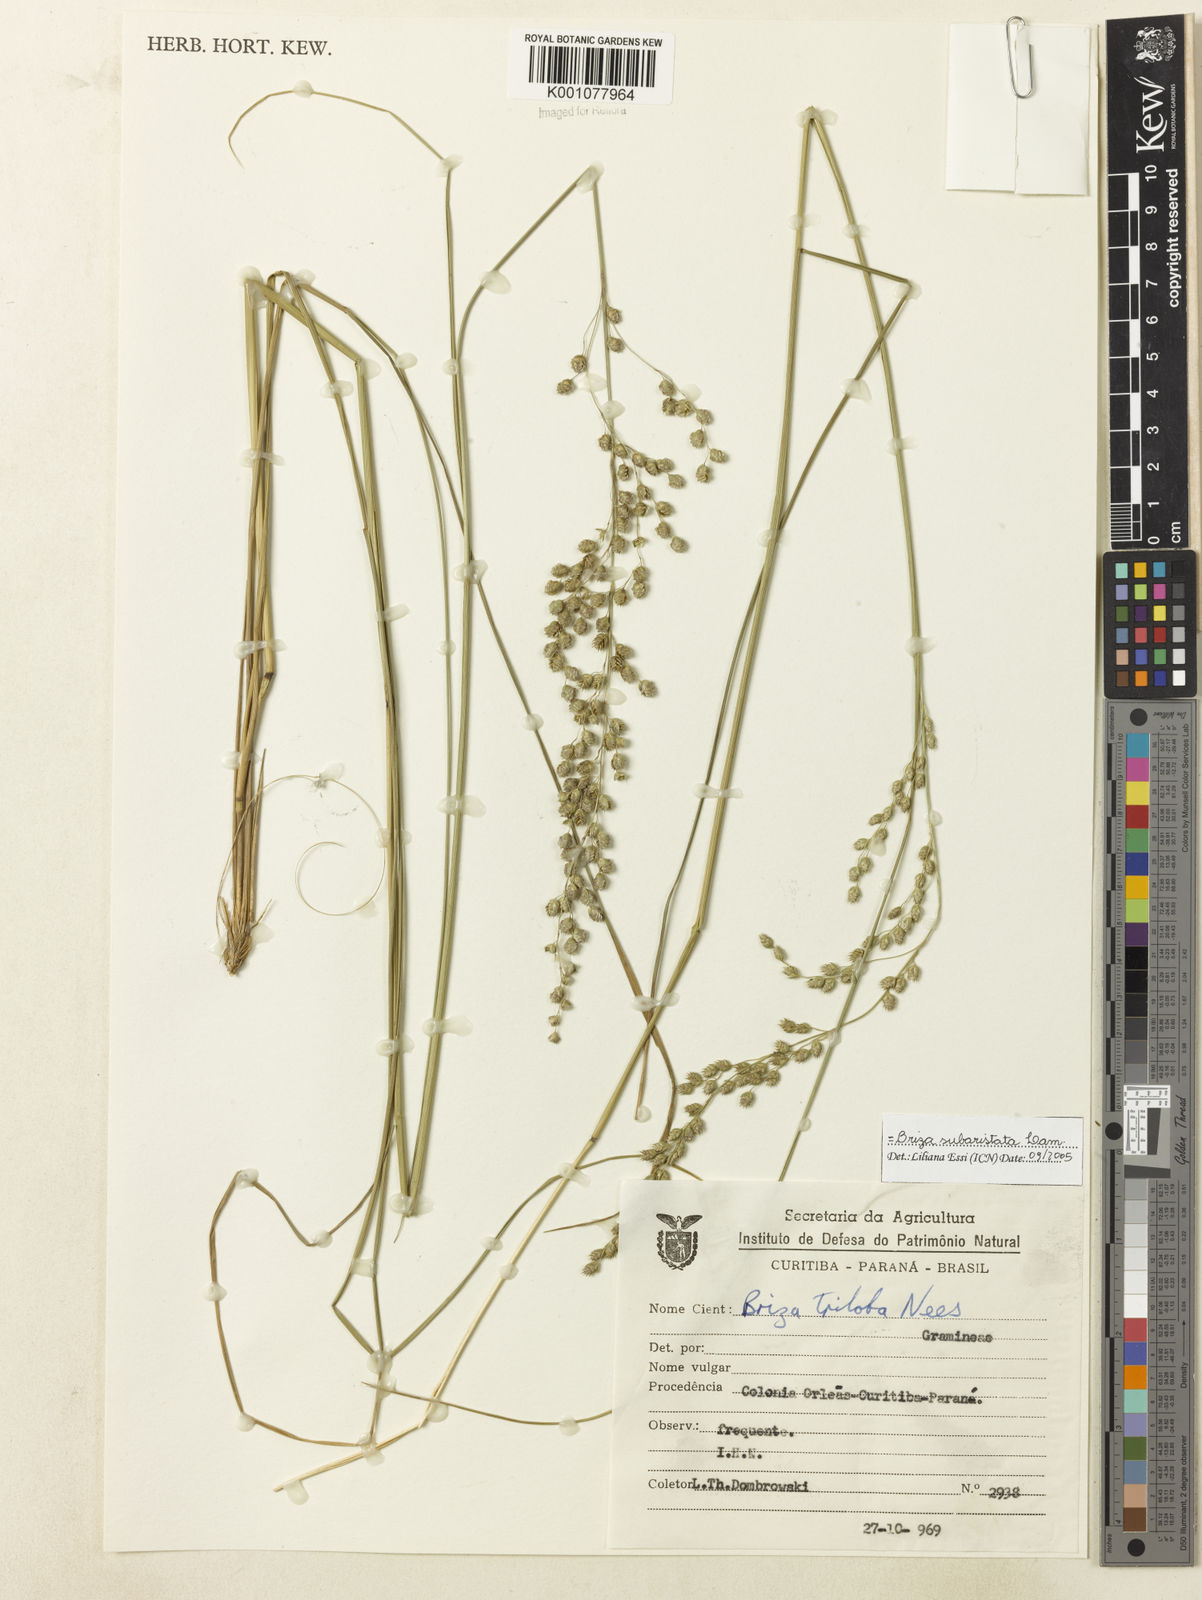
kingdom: Plantae
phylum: Tracheophyta
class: Liliopsida
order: Poales
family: Poaceae
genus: Briza
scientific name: Briza
